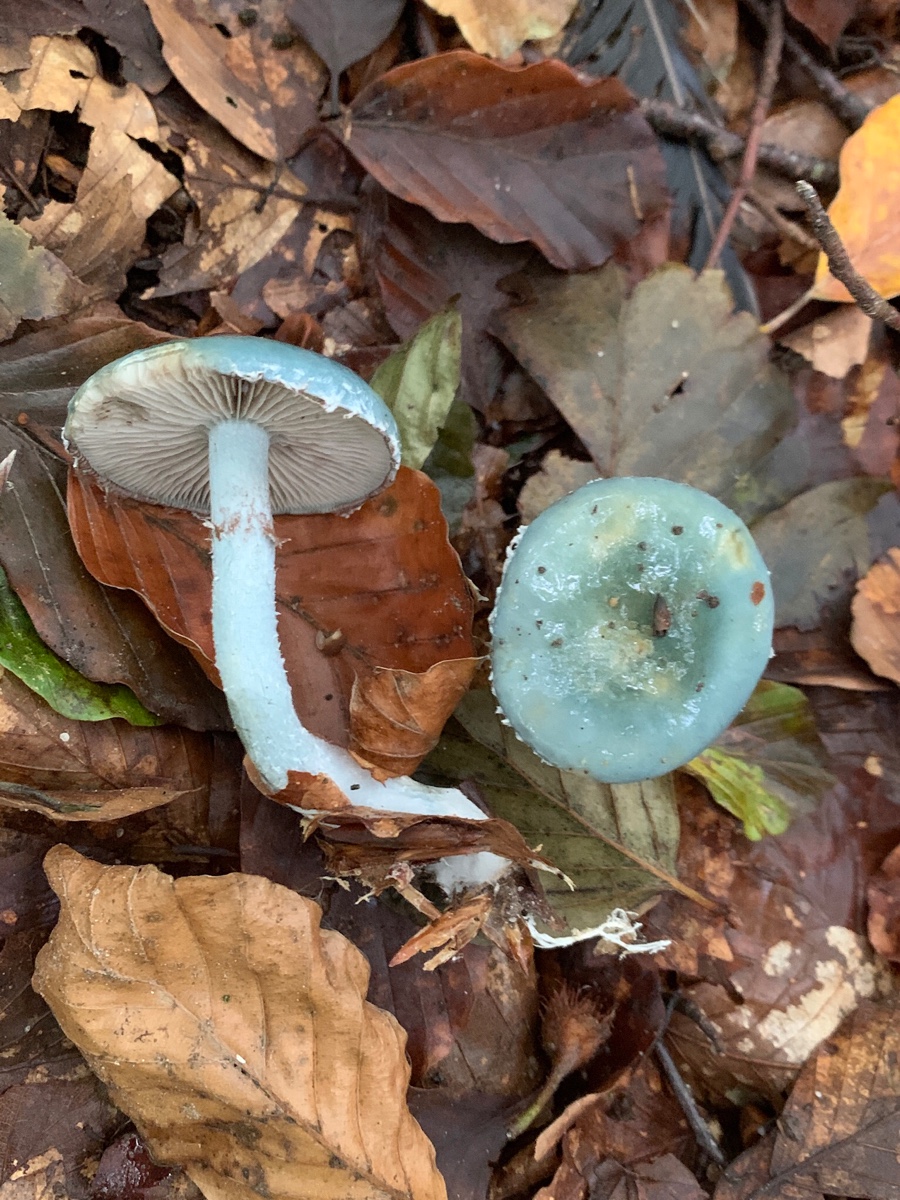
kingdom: Fungi
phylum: Basidiomycota
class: Agaricomycetes
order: Agaricales
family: Strophariaceae
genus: Stropharia
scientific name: Stropharia cyanea
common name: blågrøn bredblad
